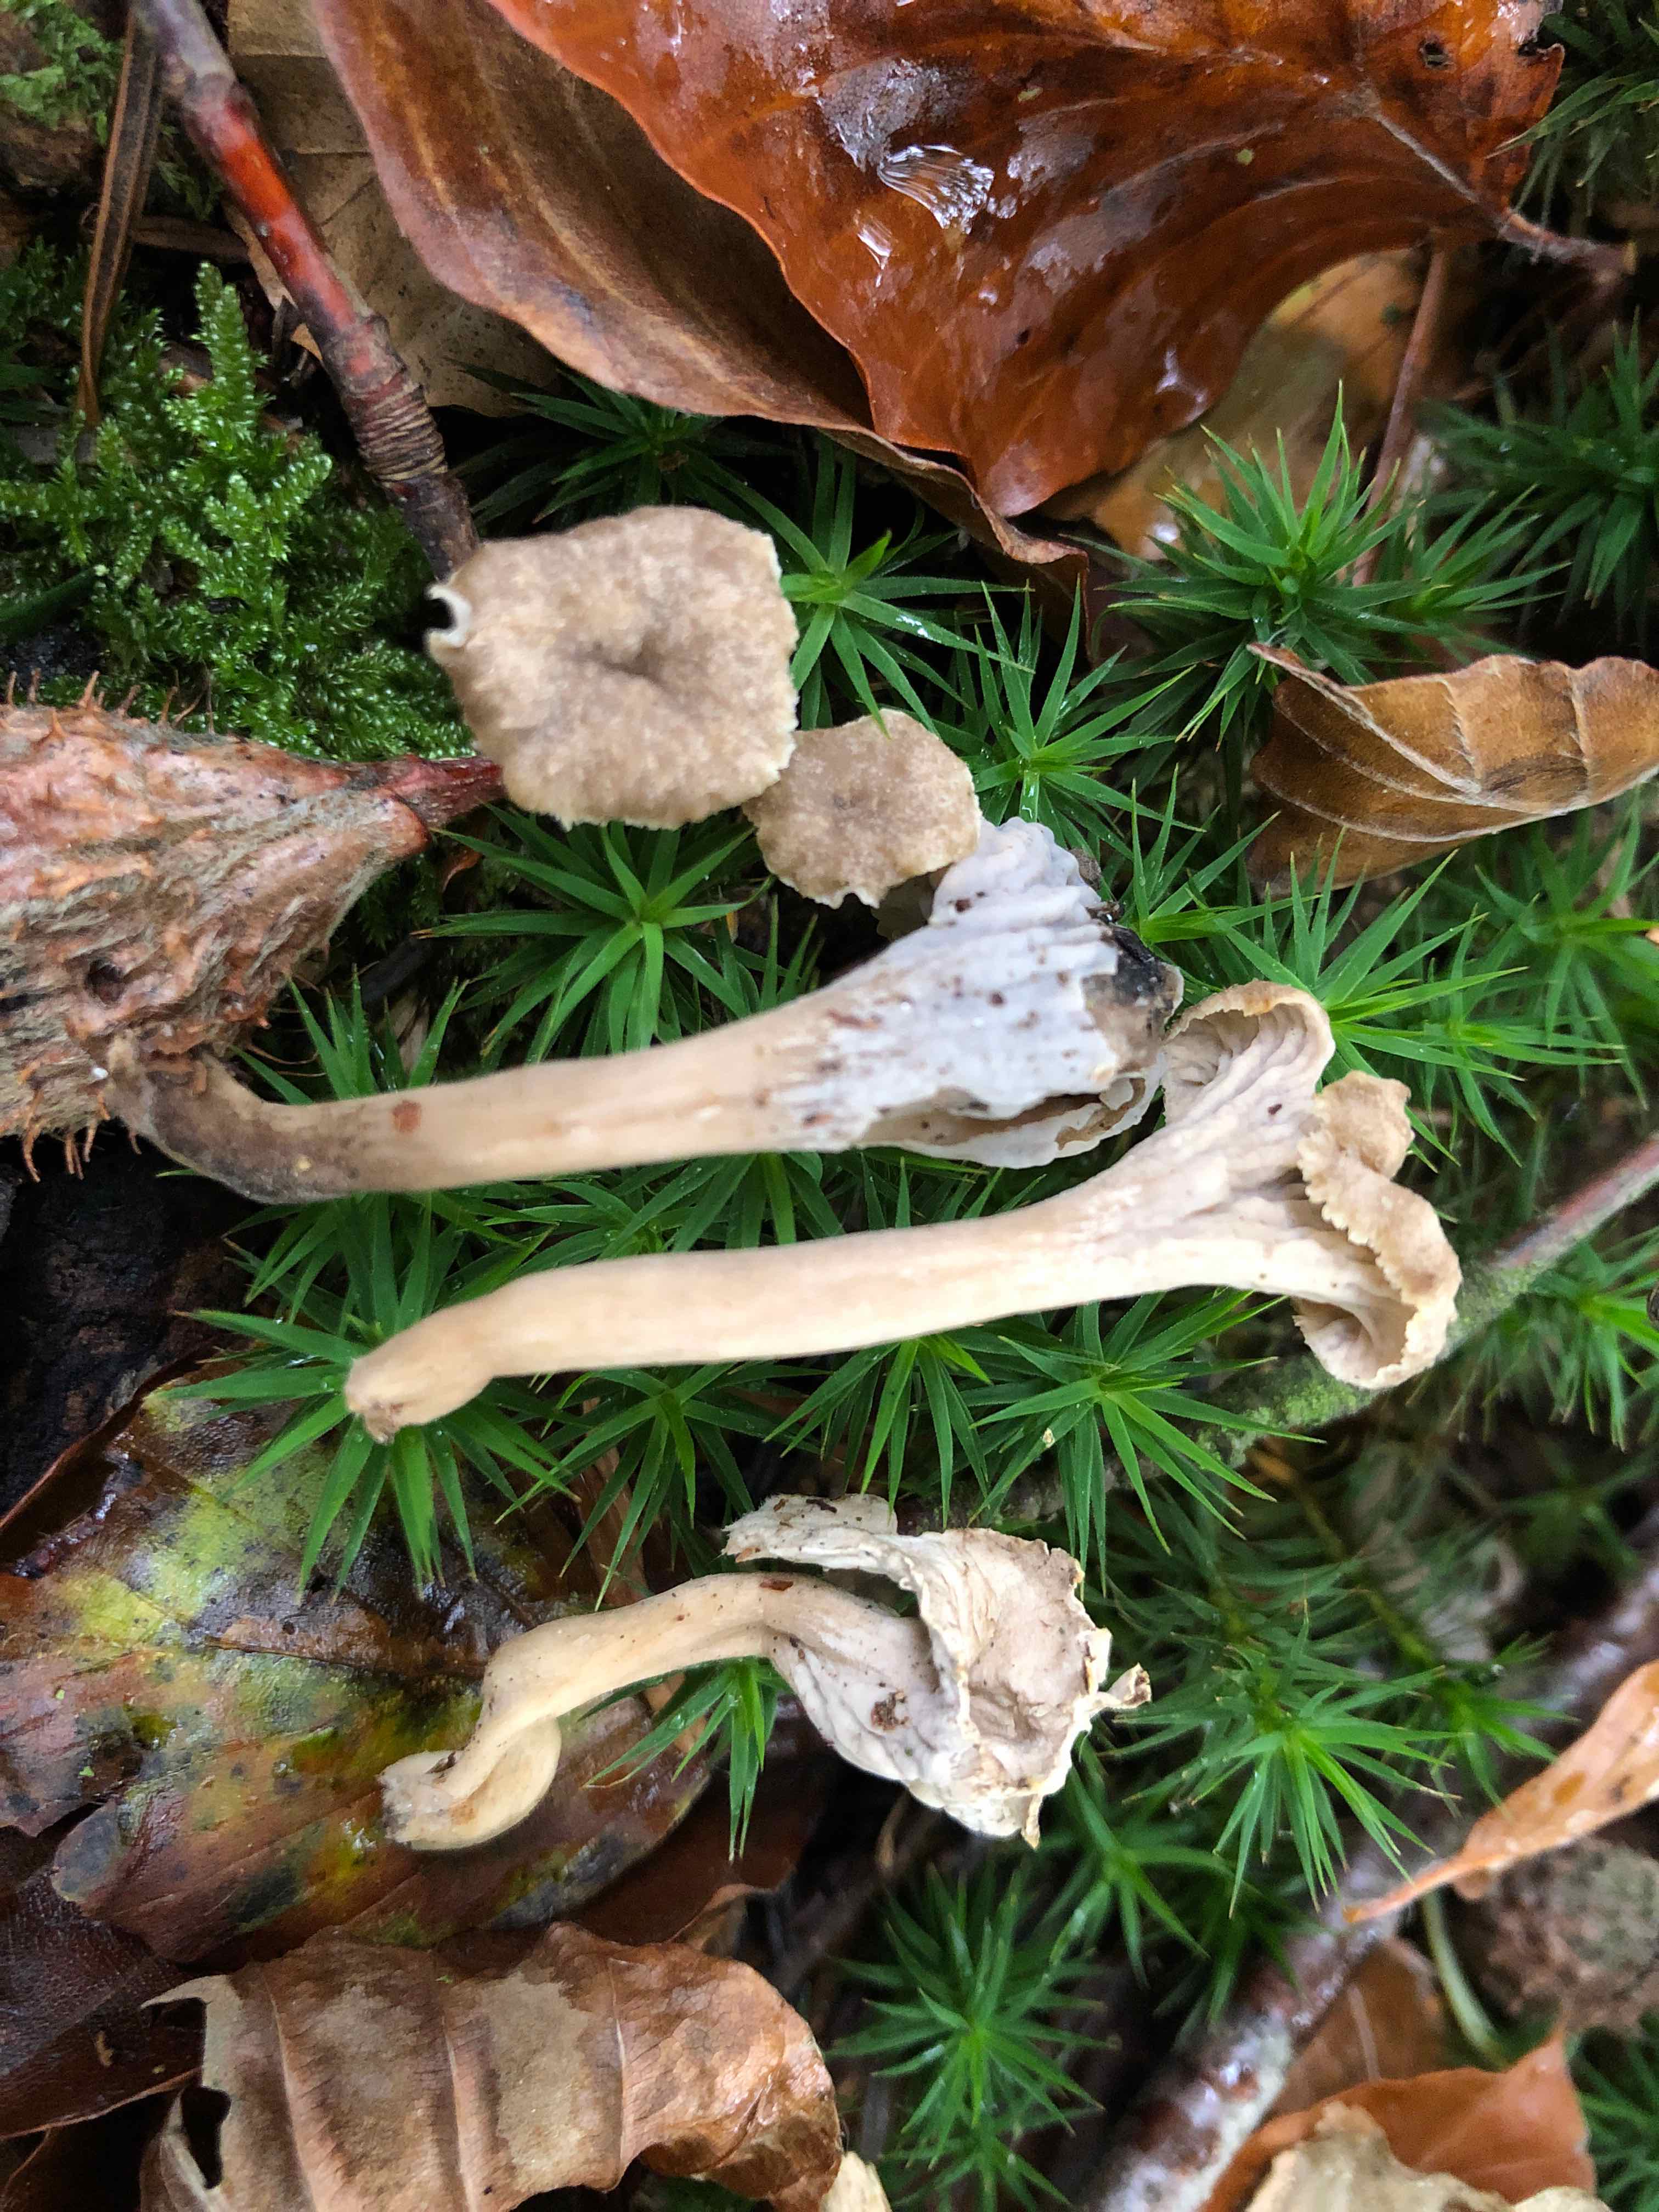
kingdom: Fungi
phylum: Basidiomycota
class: Agaricomycetes
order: Cantharellales
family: Hydnaceae
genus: Craterellus
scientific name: Craterellus undulatus
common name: liden kantarel
